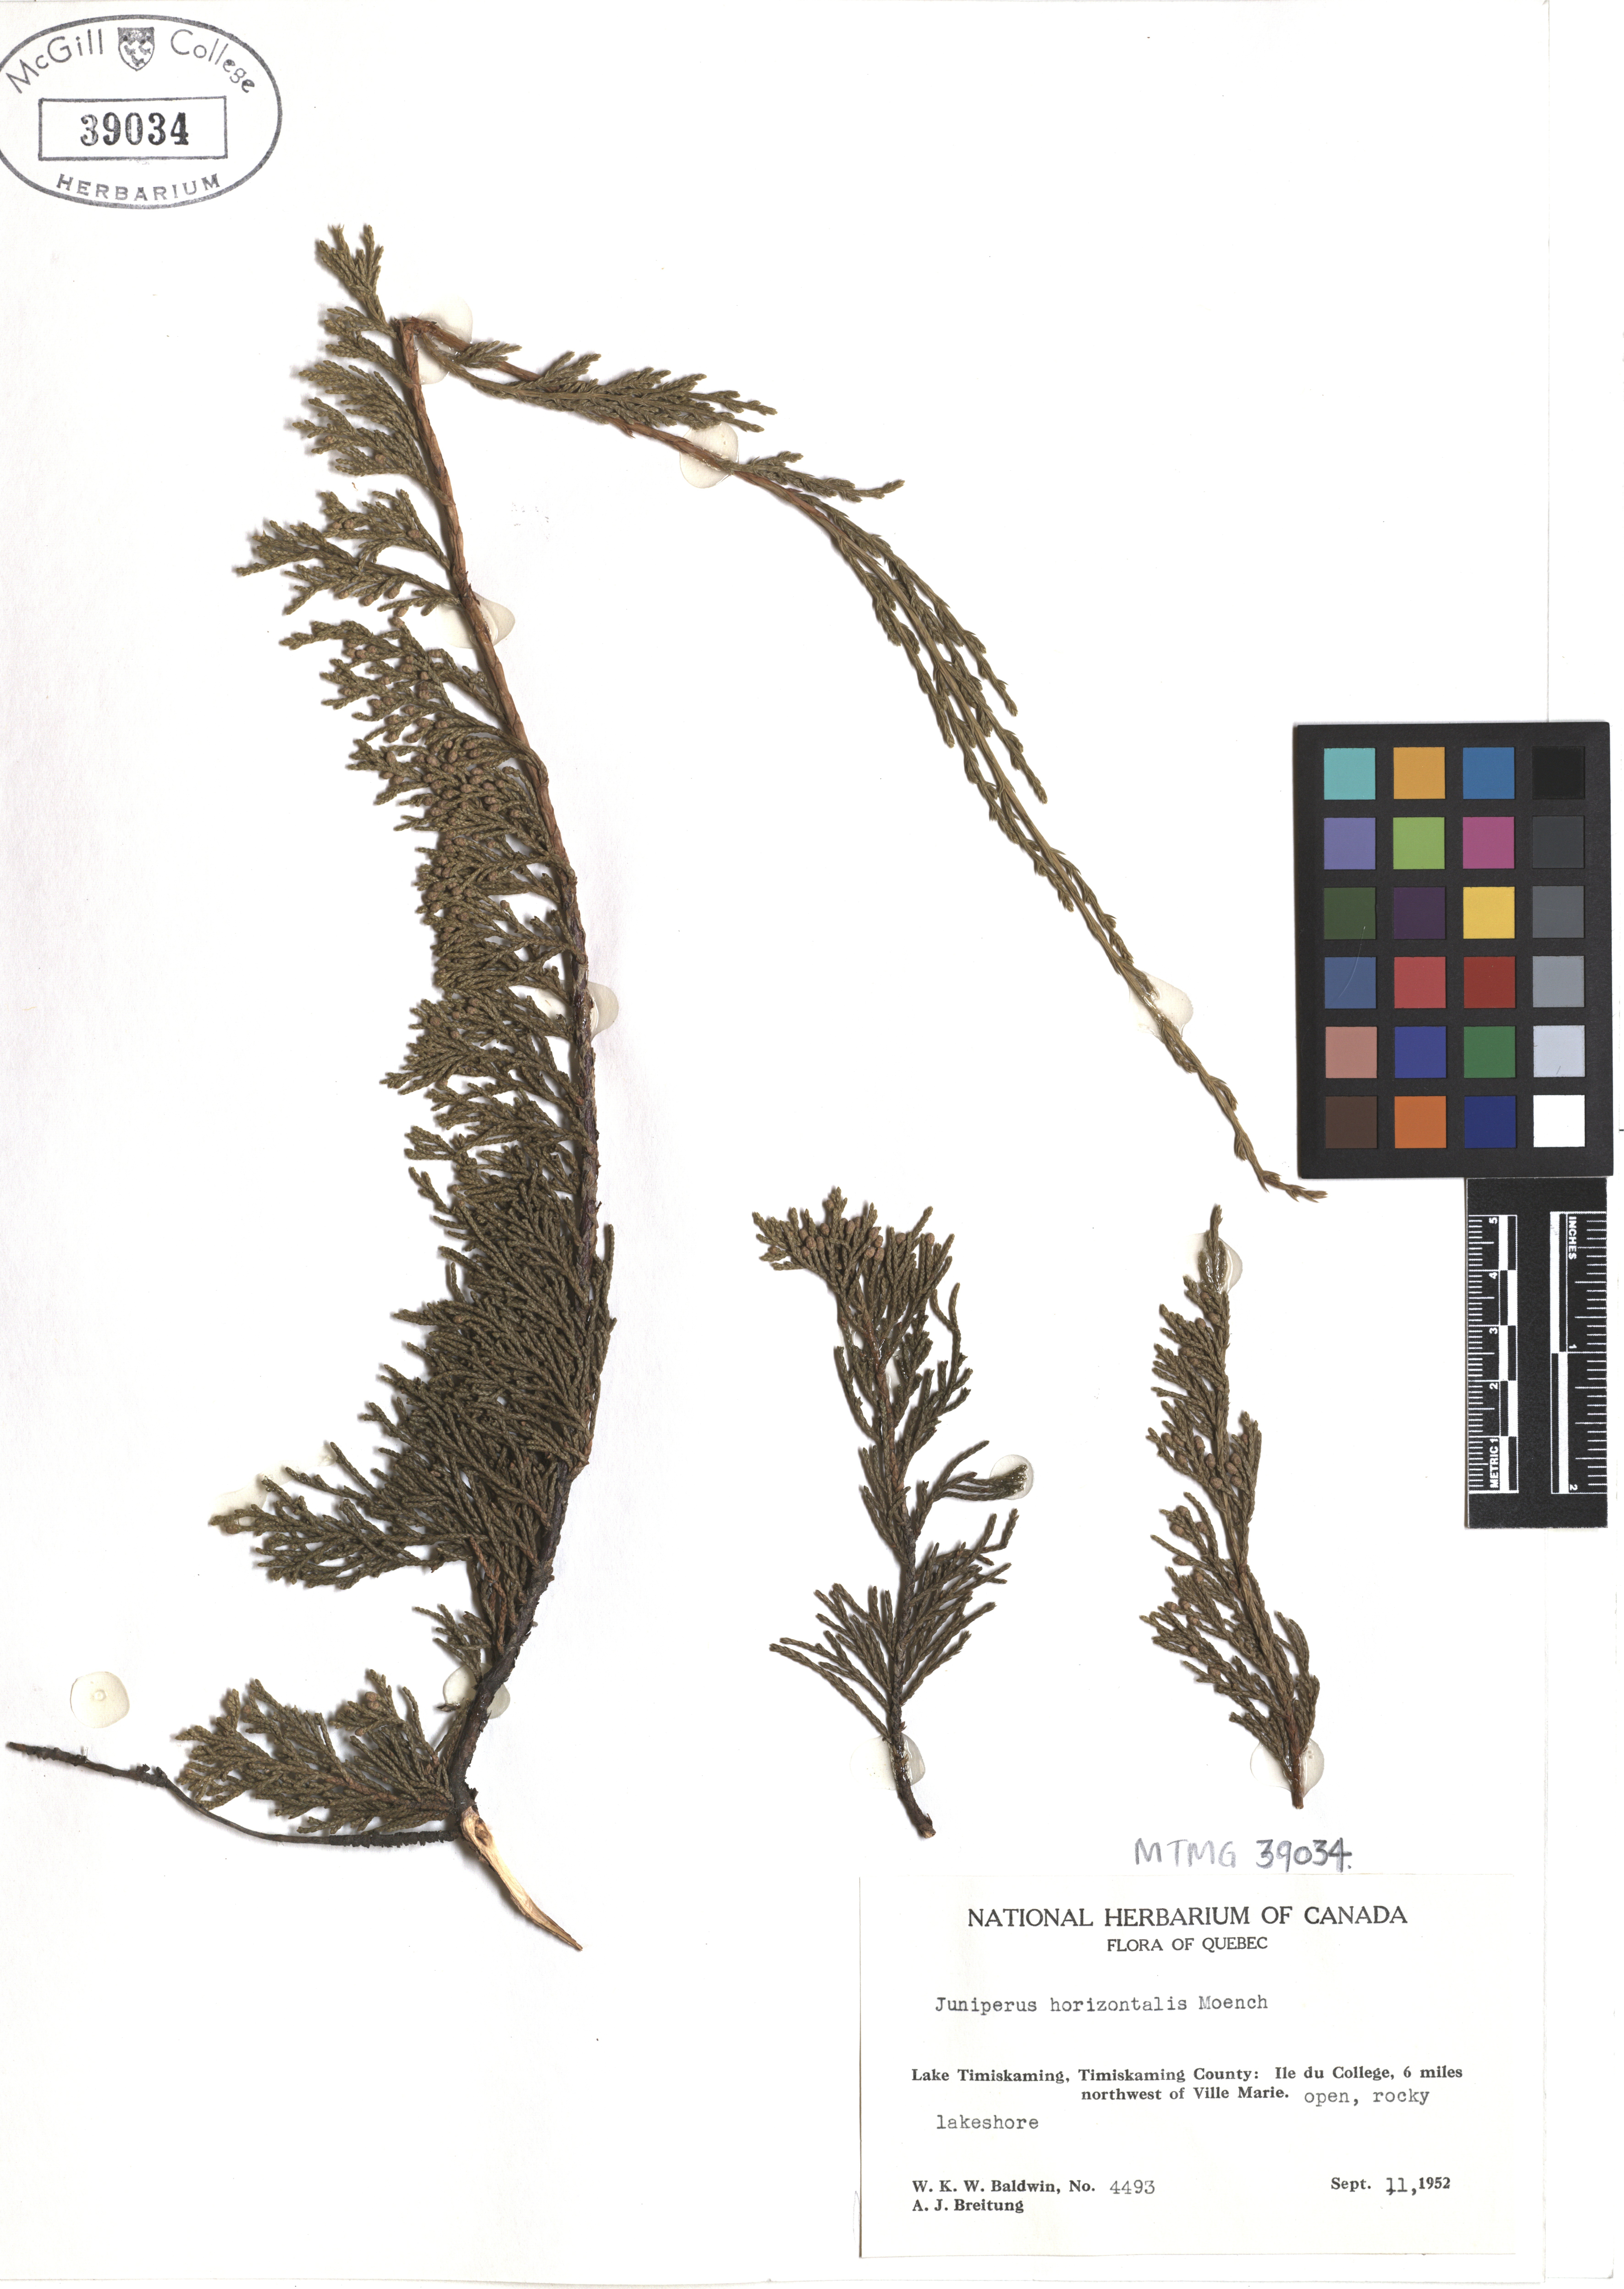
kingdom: Plantae
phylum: Tracheophyta
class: Pinopsida
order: Pinales
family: Cupressaceae
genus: Juniperus
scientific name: Juniperus horizontalis
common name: Creeping juniper
